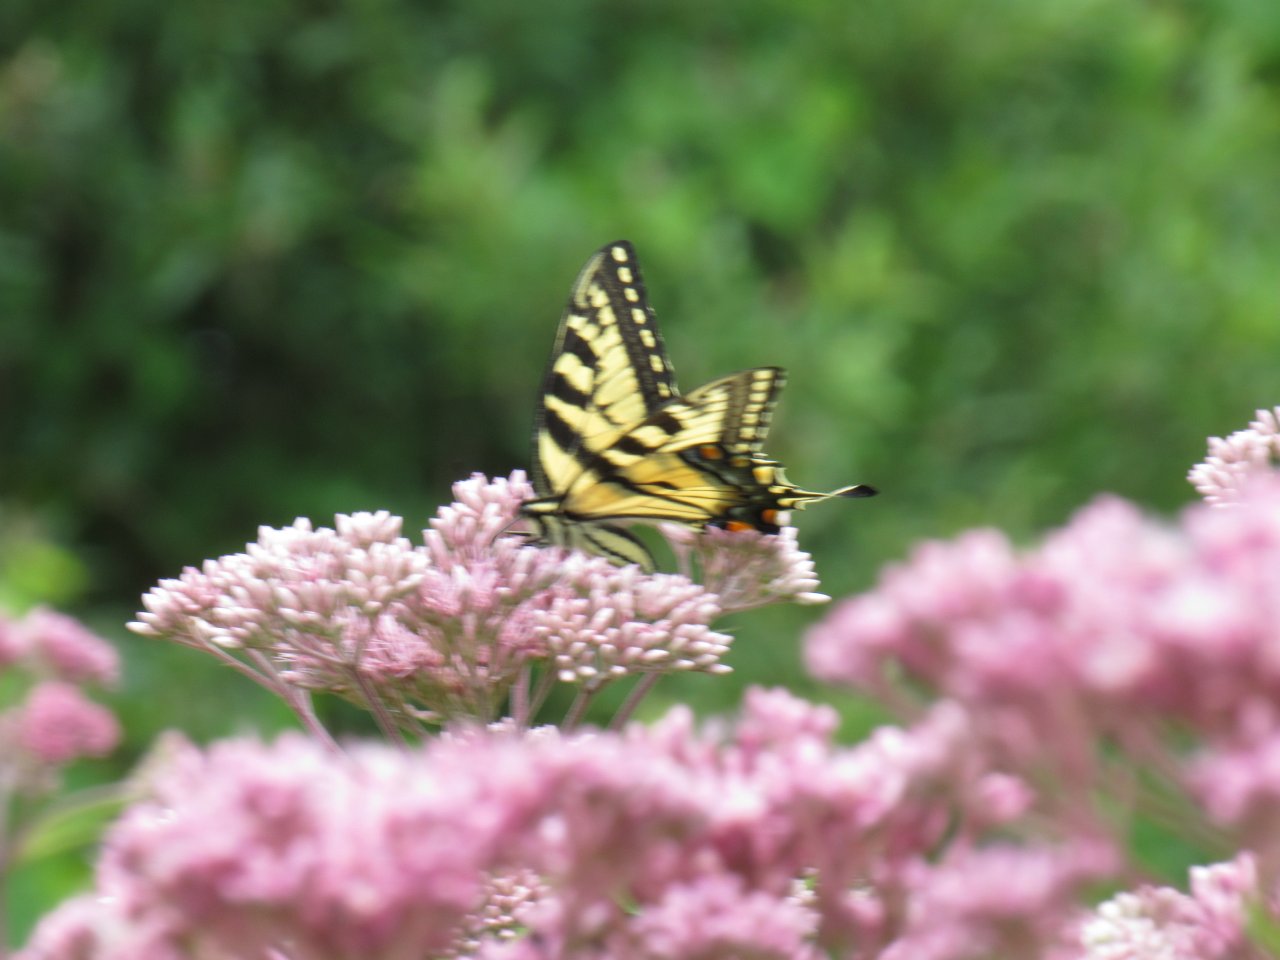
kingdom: Animalia
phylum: Arthropoda
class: Insecta
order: Lepidoptera
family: Papilionidae
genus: Pterourus
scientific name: Pterourus
